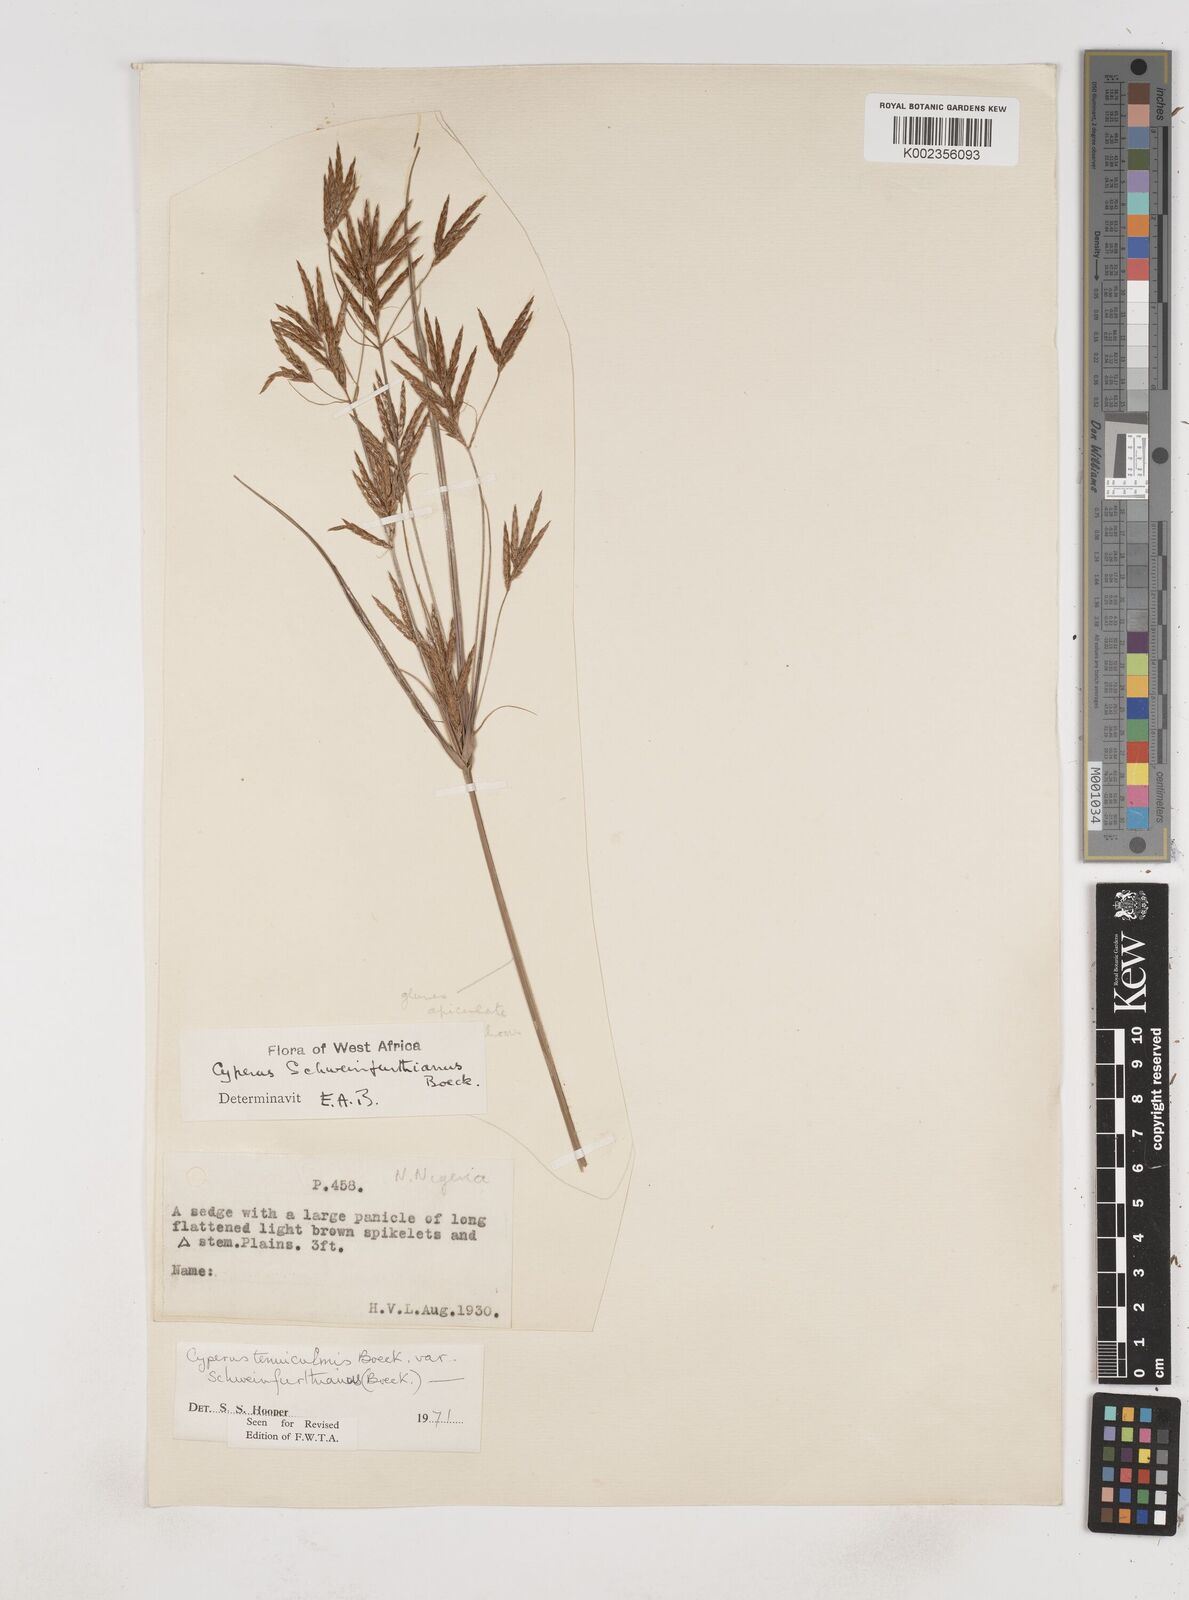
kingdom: Plantae
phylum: Tracheophyta
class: Liliopsida
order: Poales
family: Cyperaceae
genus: Cyperus
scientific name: Cyperus tenuiculmis
